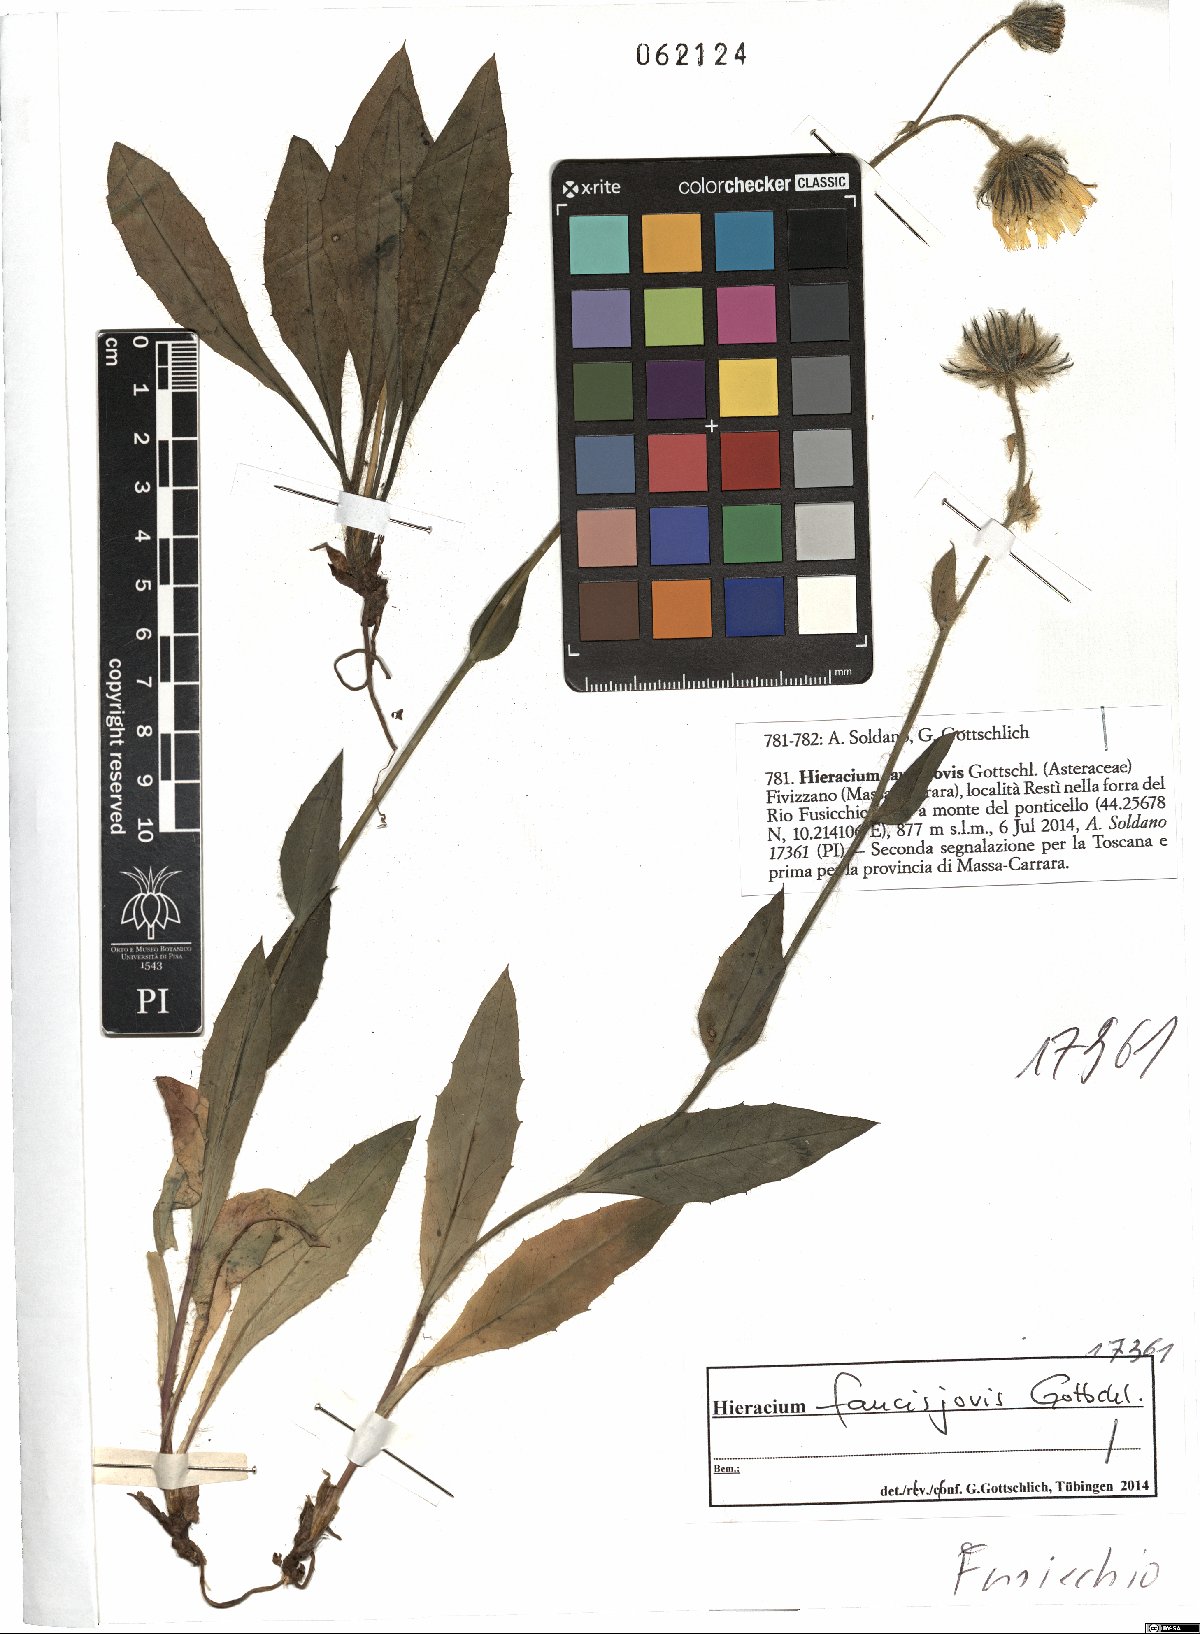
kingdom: Plantae
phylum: Tracheophyta
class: Magnoliopsida
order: Asterales
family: Asteraceae
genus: Hieracium
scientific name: Hieracium faucisjovis
